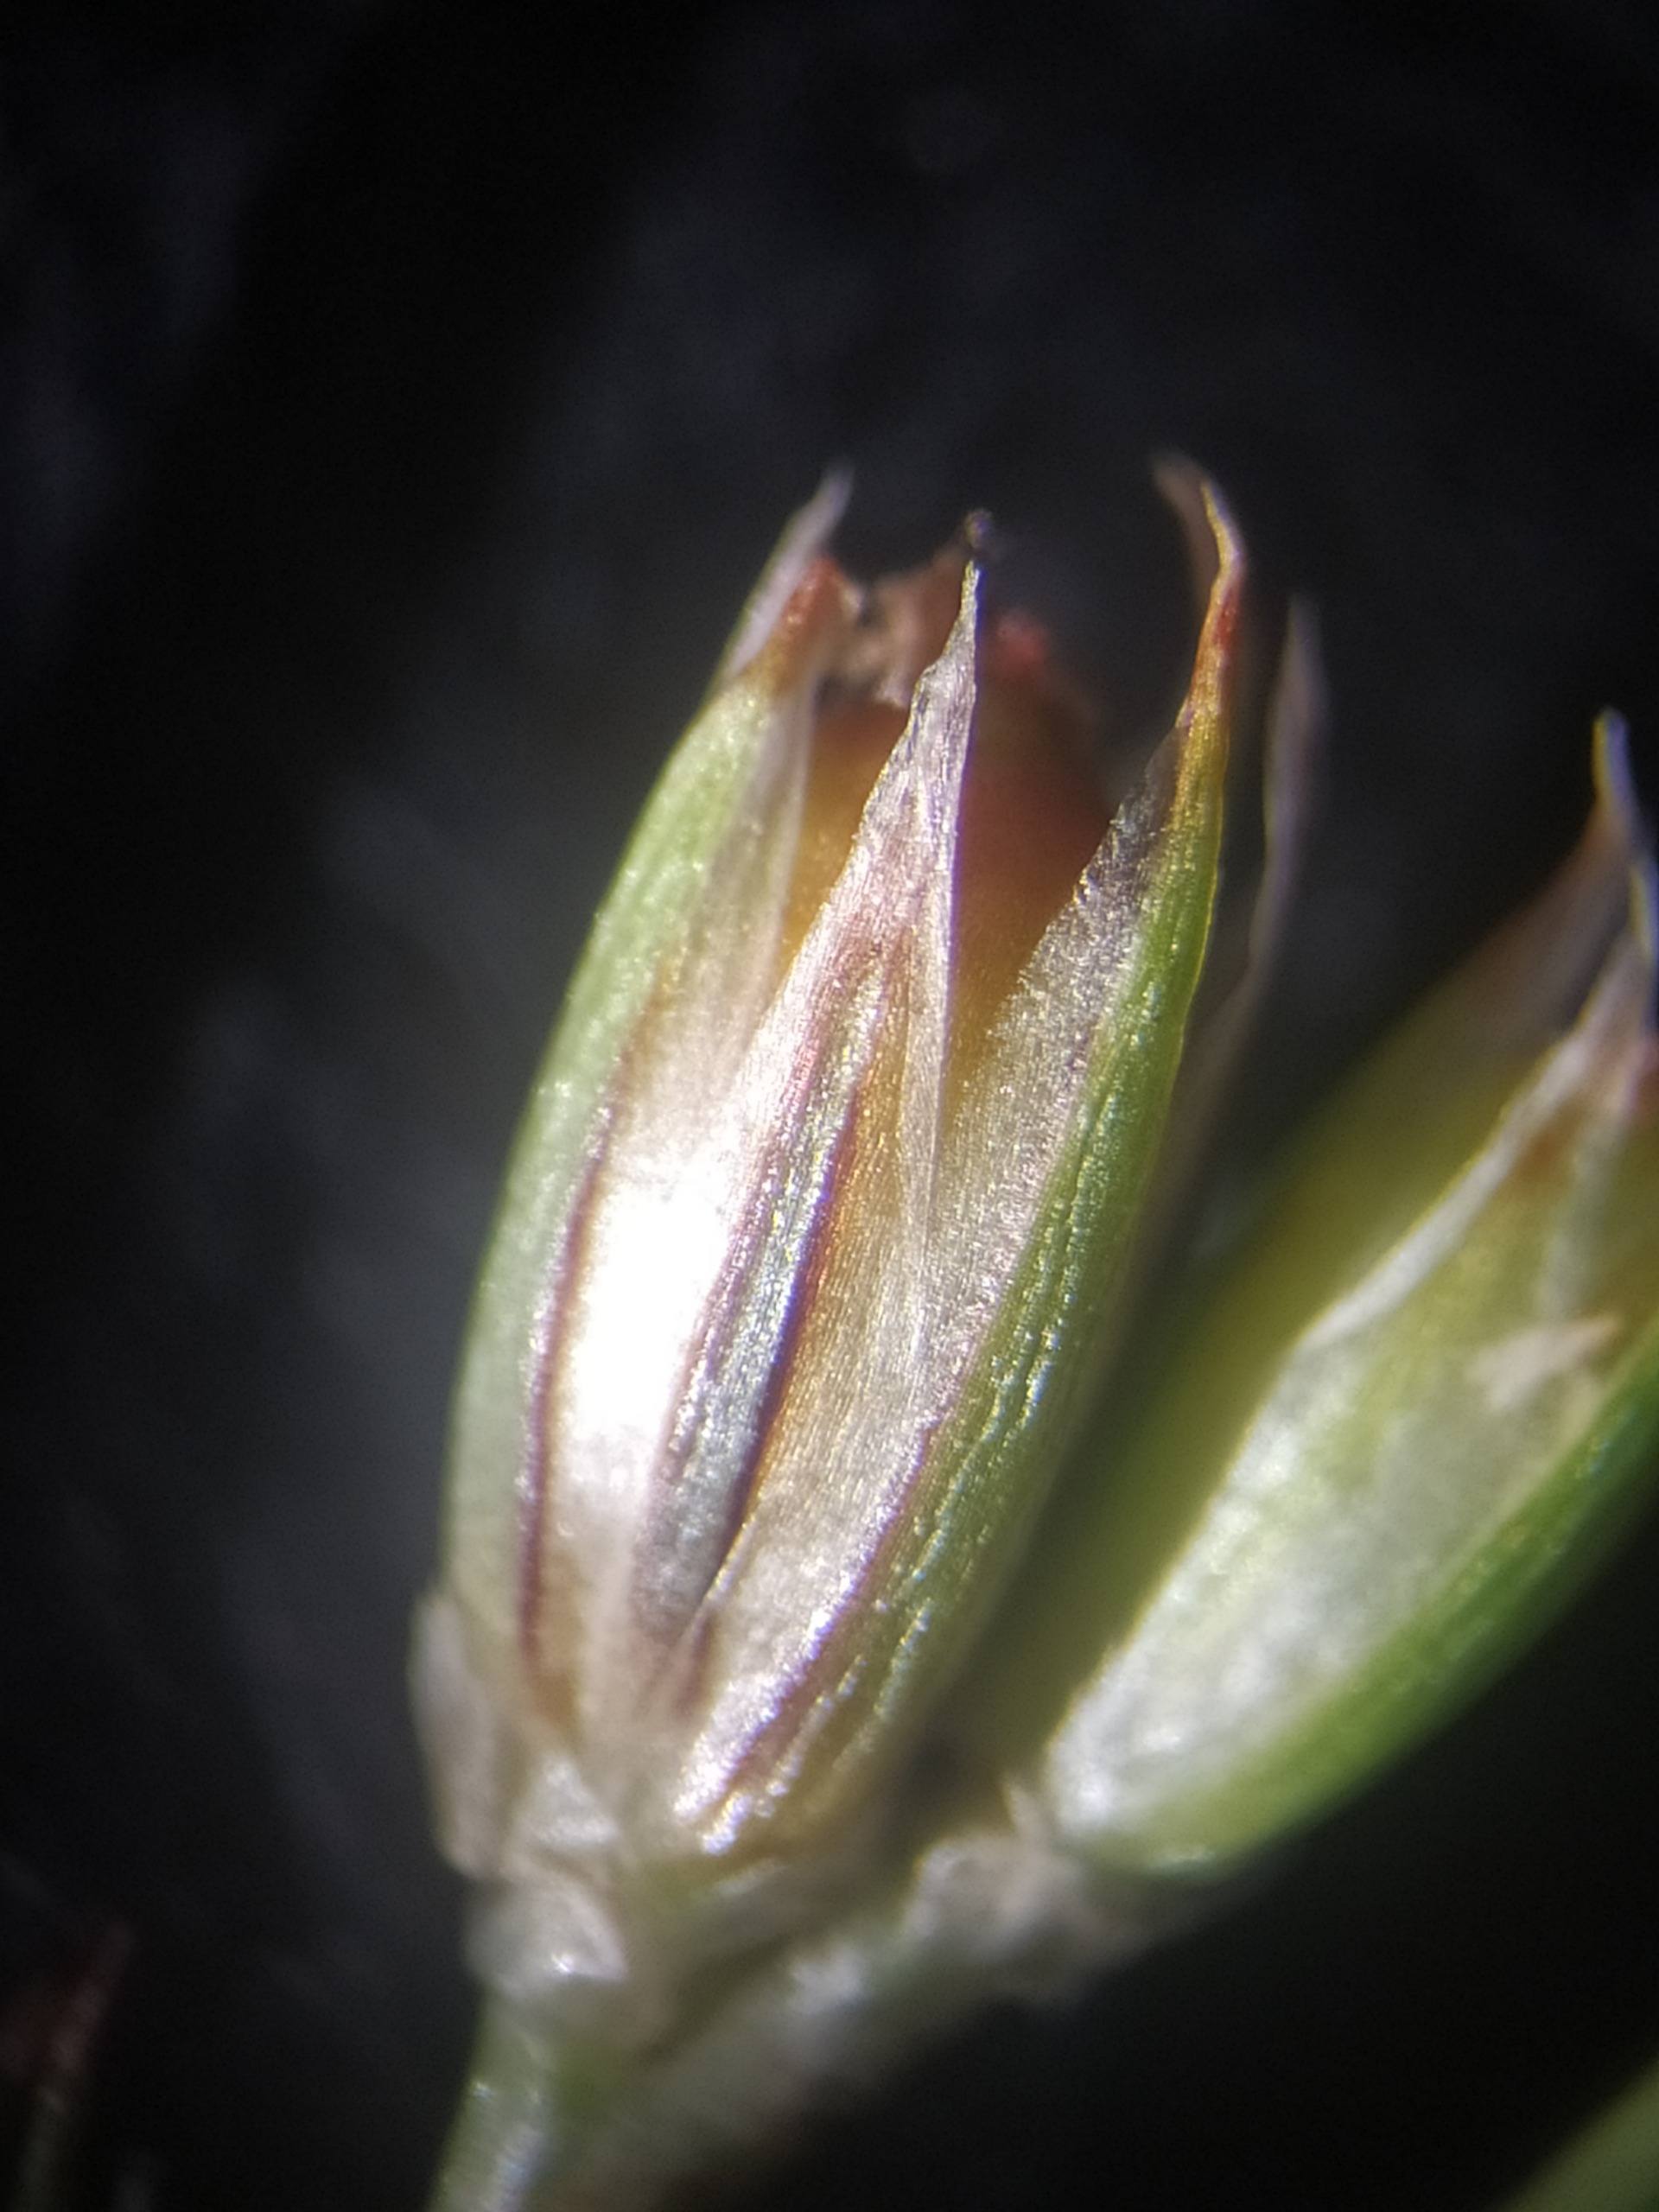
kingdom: Plantae
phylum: Tracheophyta
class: Liliopsida
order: Poales
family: Juncaceae
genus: Juncus
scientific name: Juncus foliosus
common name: Stribet siv
